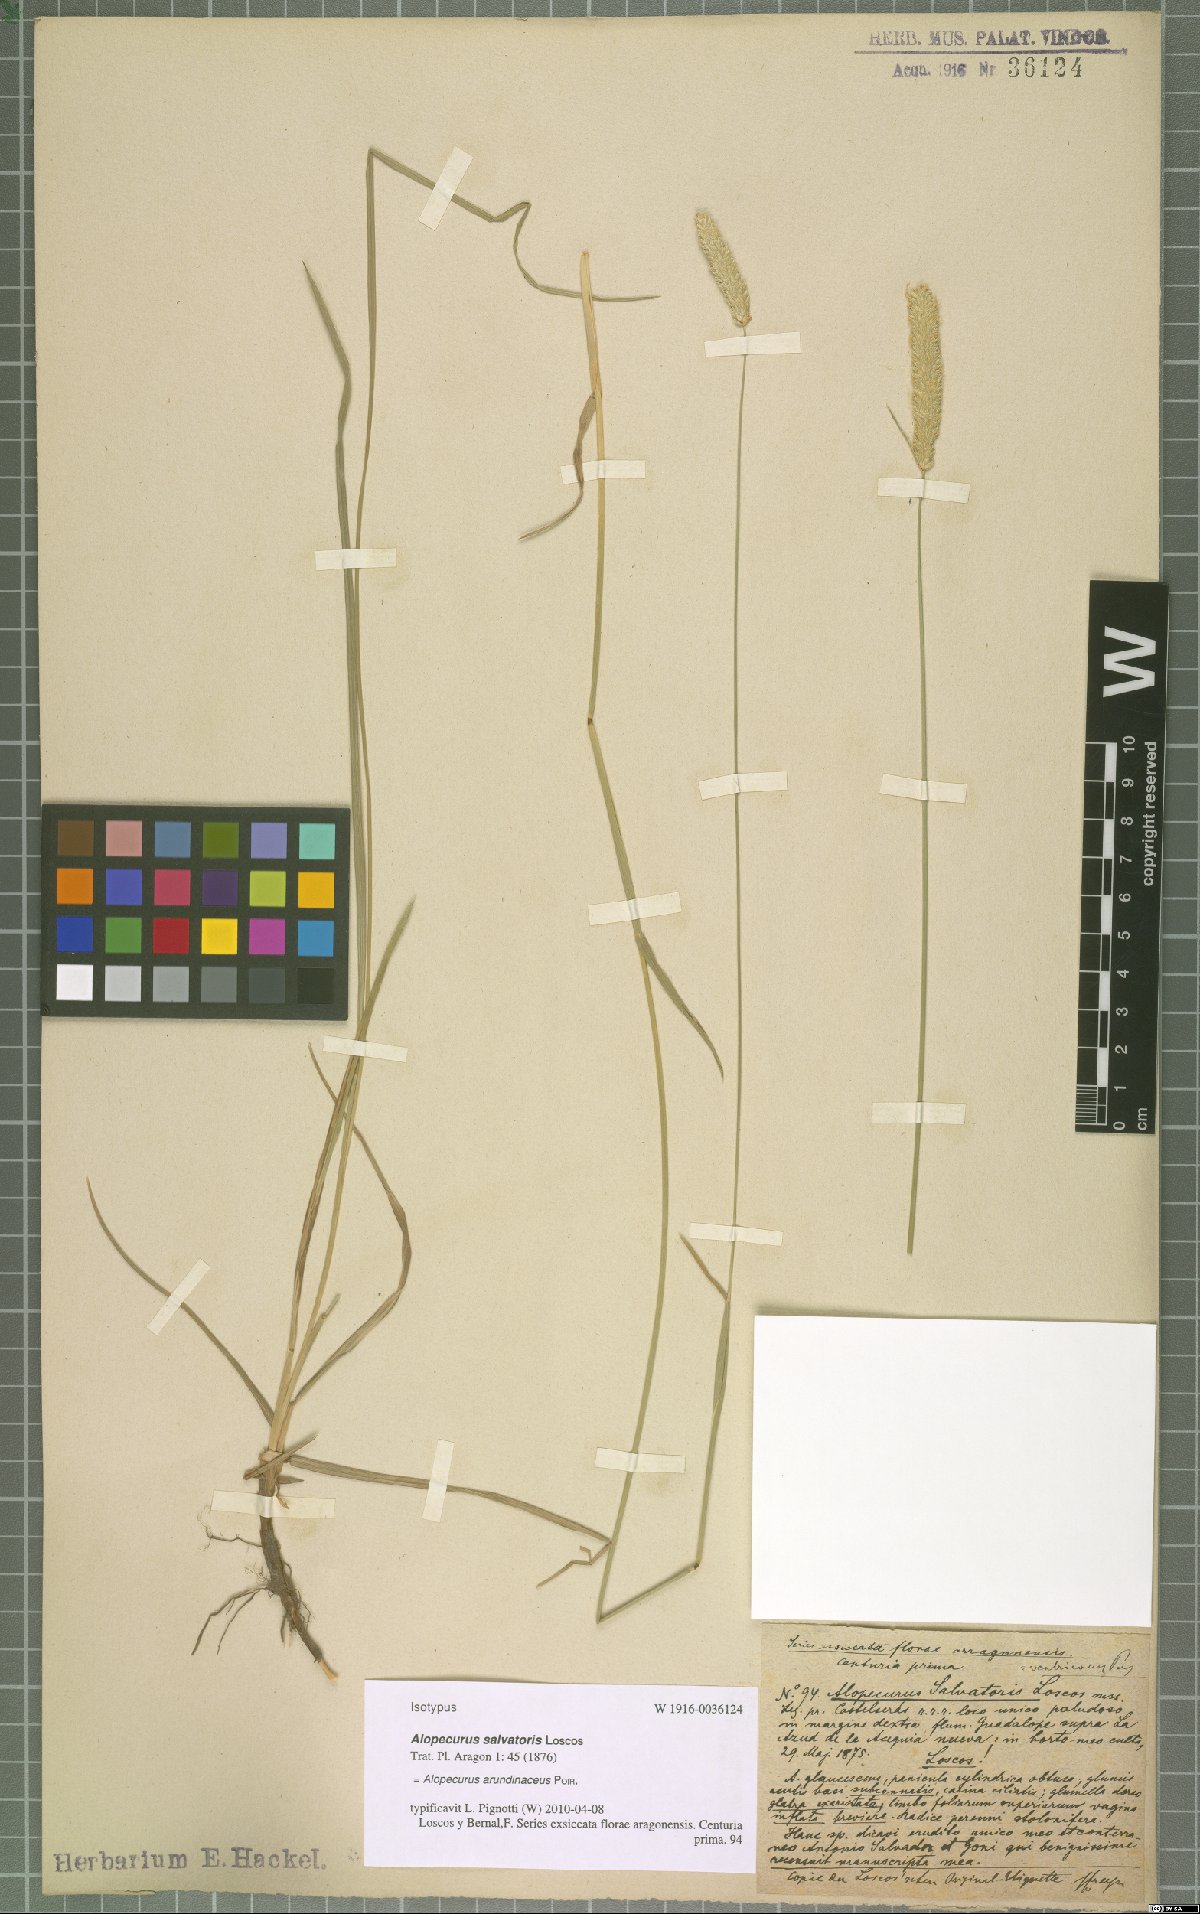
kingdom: Plantae
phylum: Tracheophyta
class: Liliopsida
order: Poales
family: Poaceae
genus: Alopecurus
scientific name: Alopecurus arundinaceus
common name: Creeping meadow foxtail
